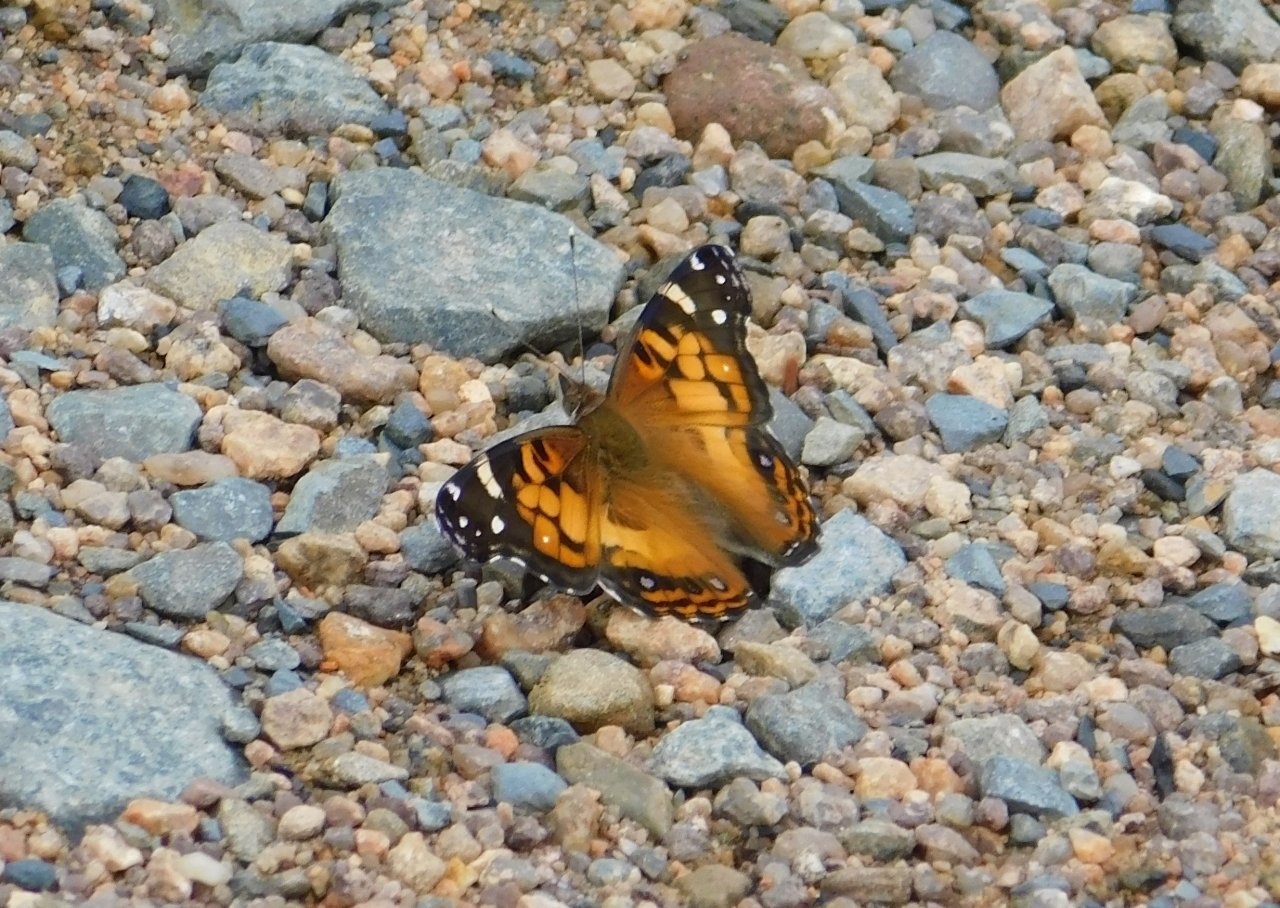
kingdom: Animalia
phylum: Arthropoda
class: Insecta
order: Lepidoptera
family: Nymphalidae
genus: Vanessa
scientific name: Vanessa virginiensis
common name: American Lady
